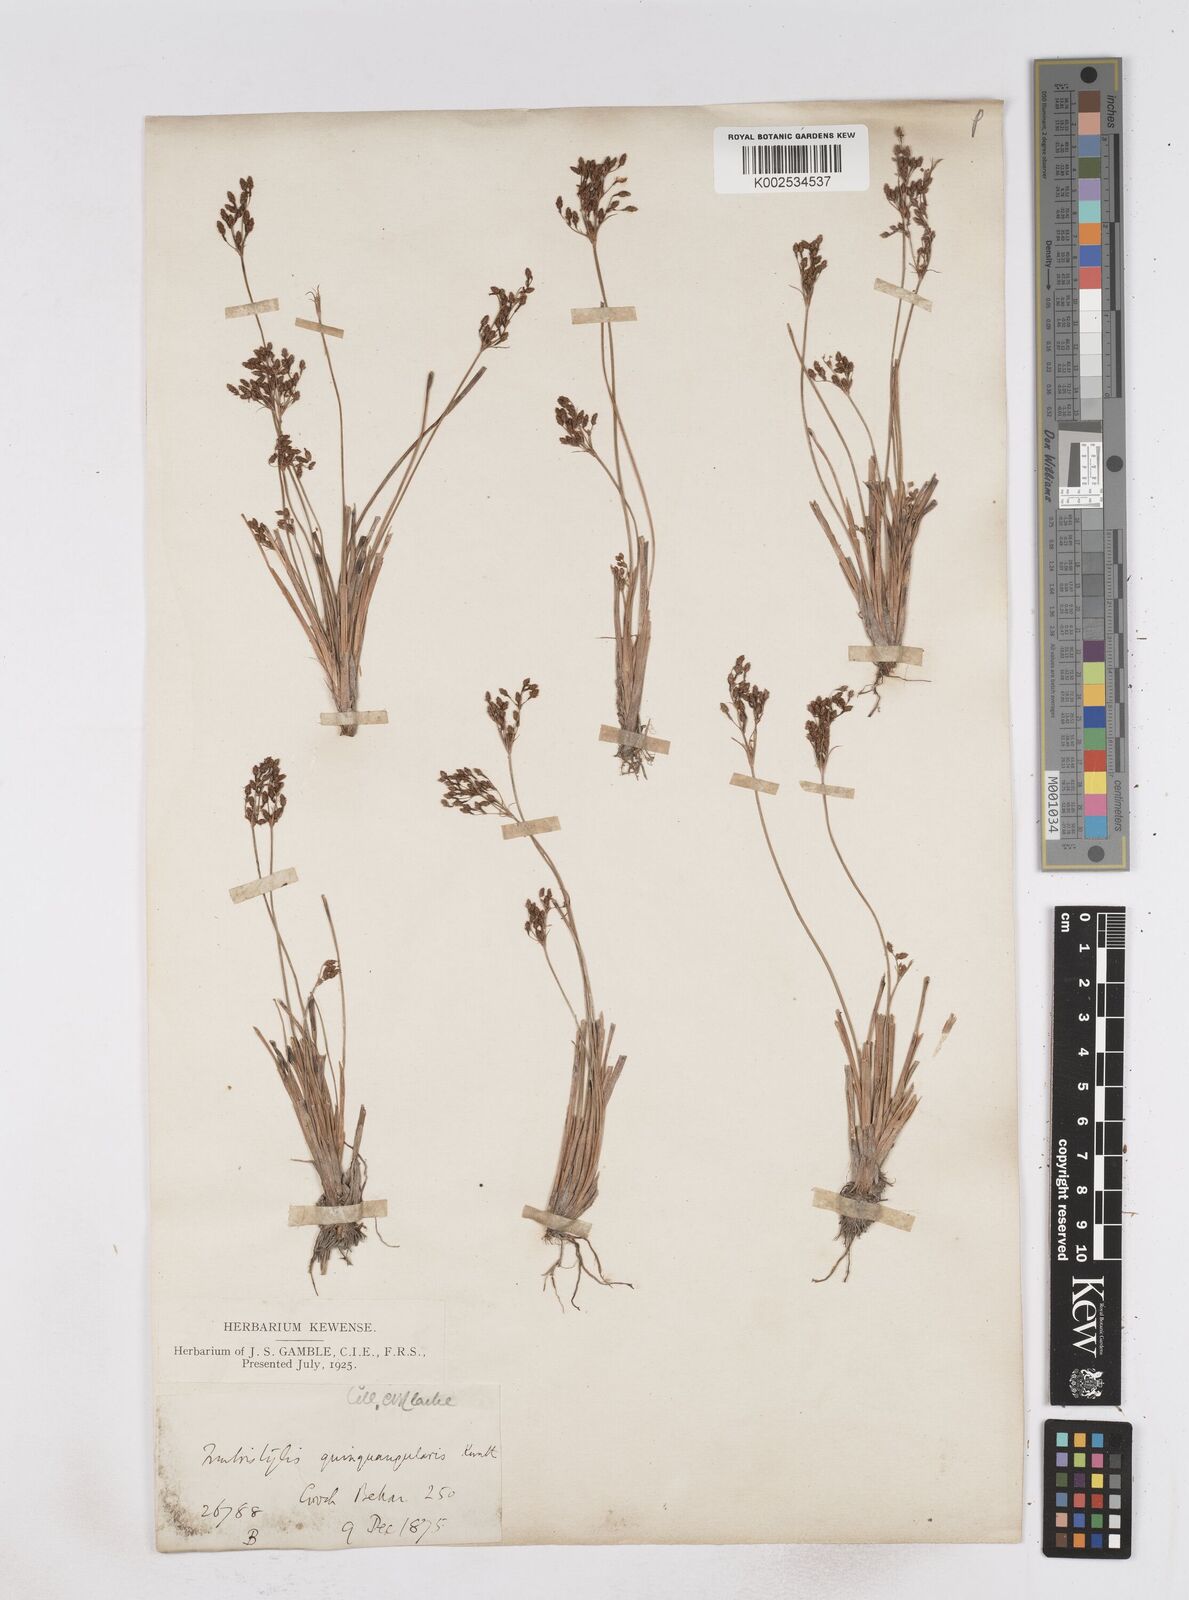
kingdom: Plantae
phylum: Tracheophyta
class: Liliopsida
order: Poales
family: Cyperaceae
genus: Fimbristylis
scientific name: Fimbristylis quinquangularis
